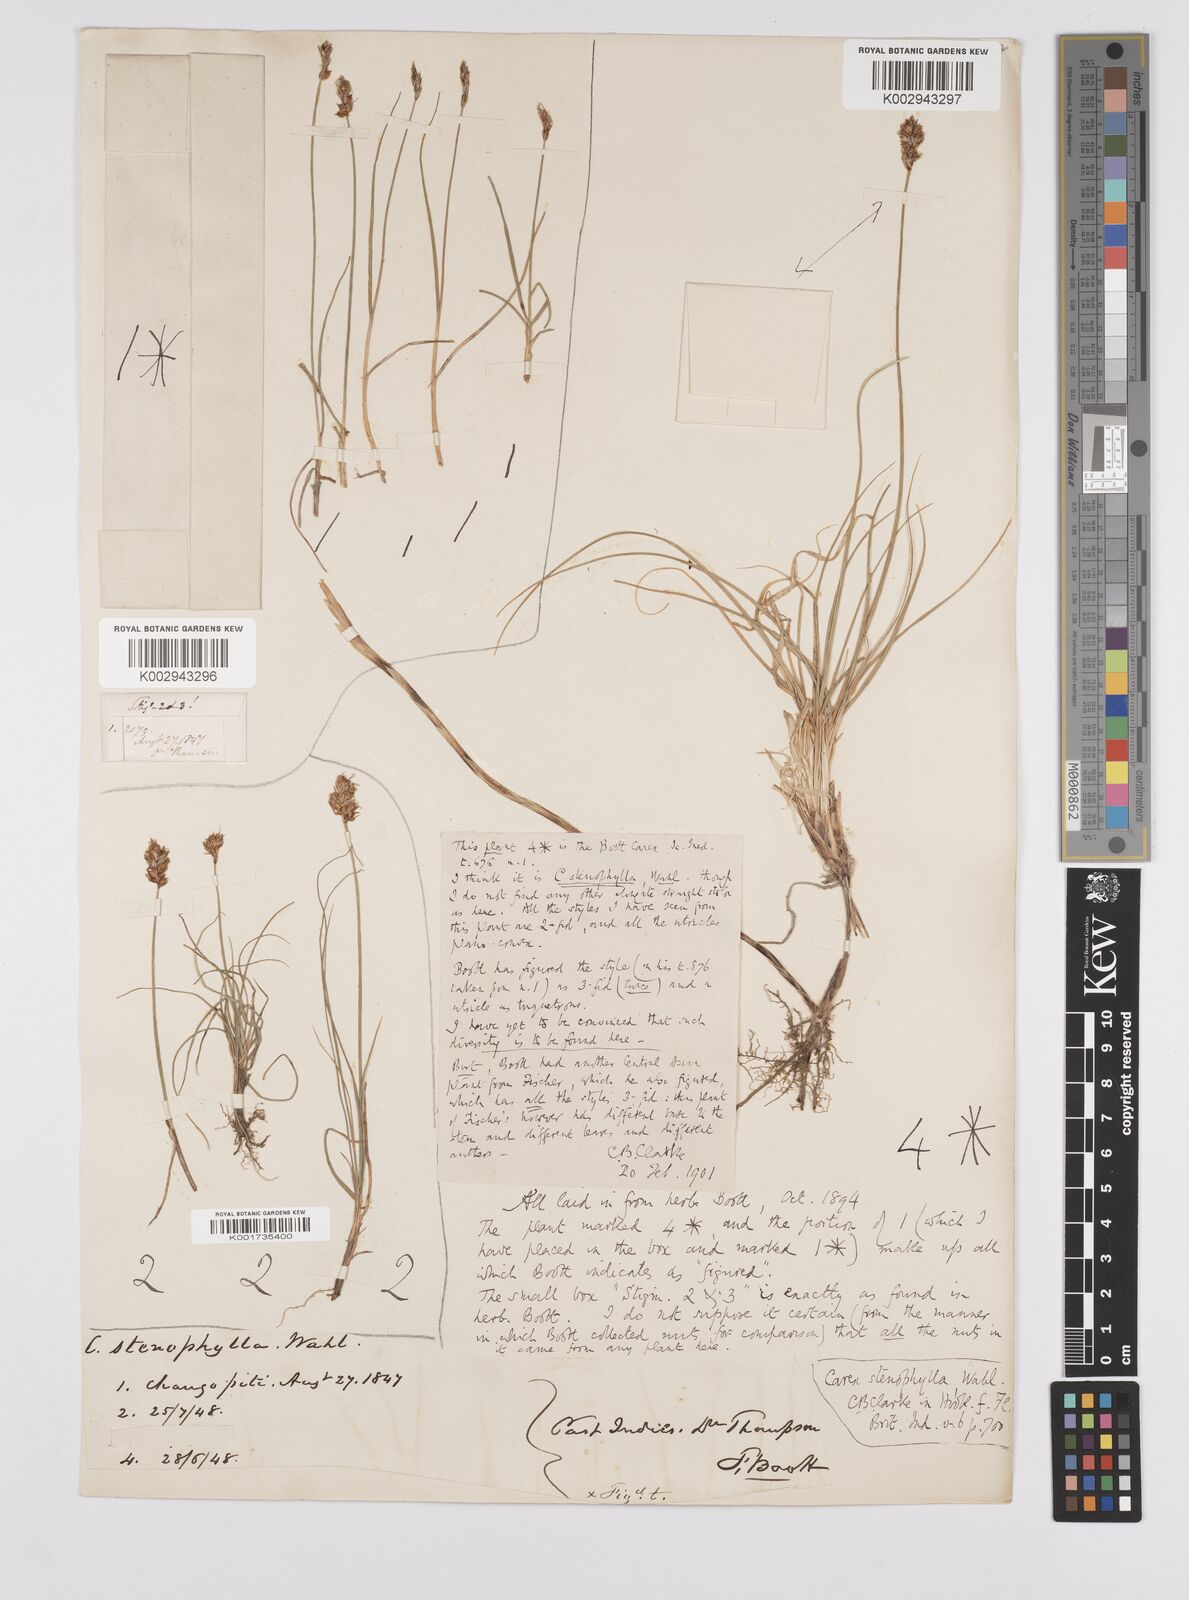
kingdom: Plantae
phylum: Tracheophyta
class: Liliopsida
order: Poales
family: Cyperaceae
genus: Carex
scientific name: Carex stenophylla
